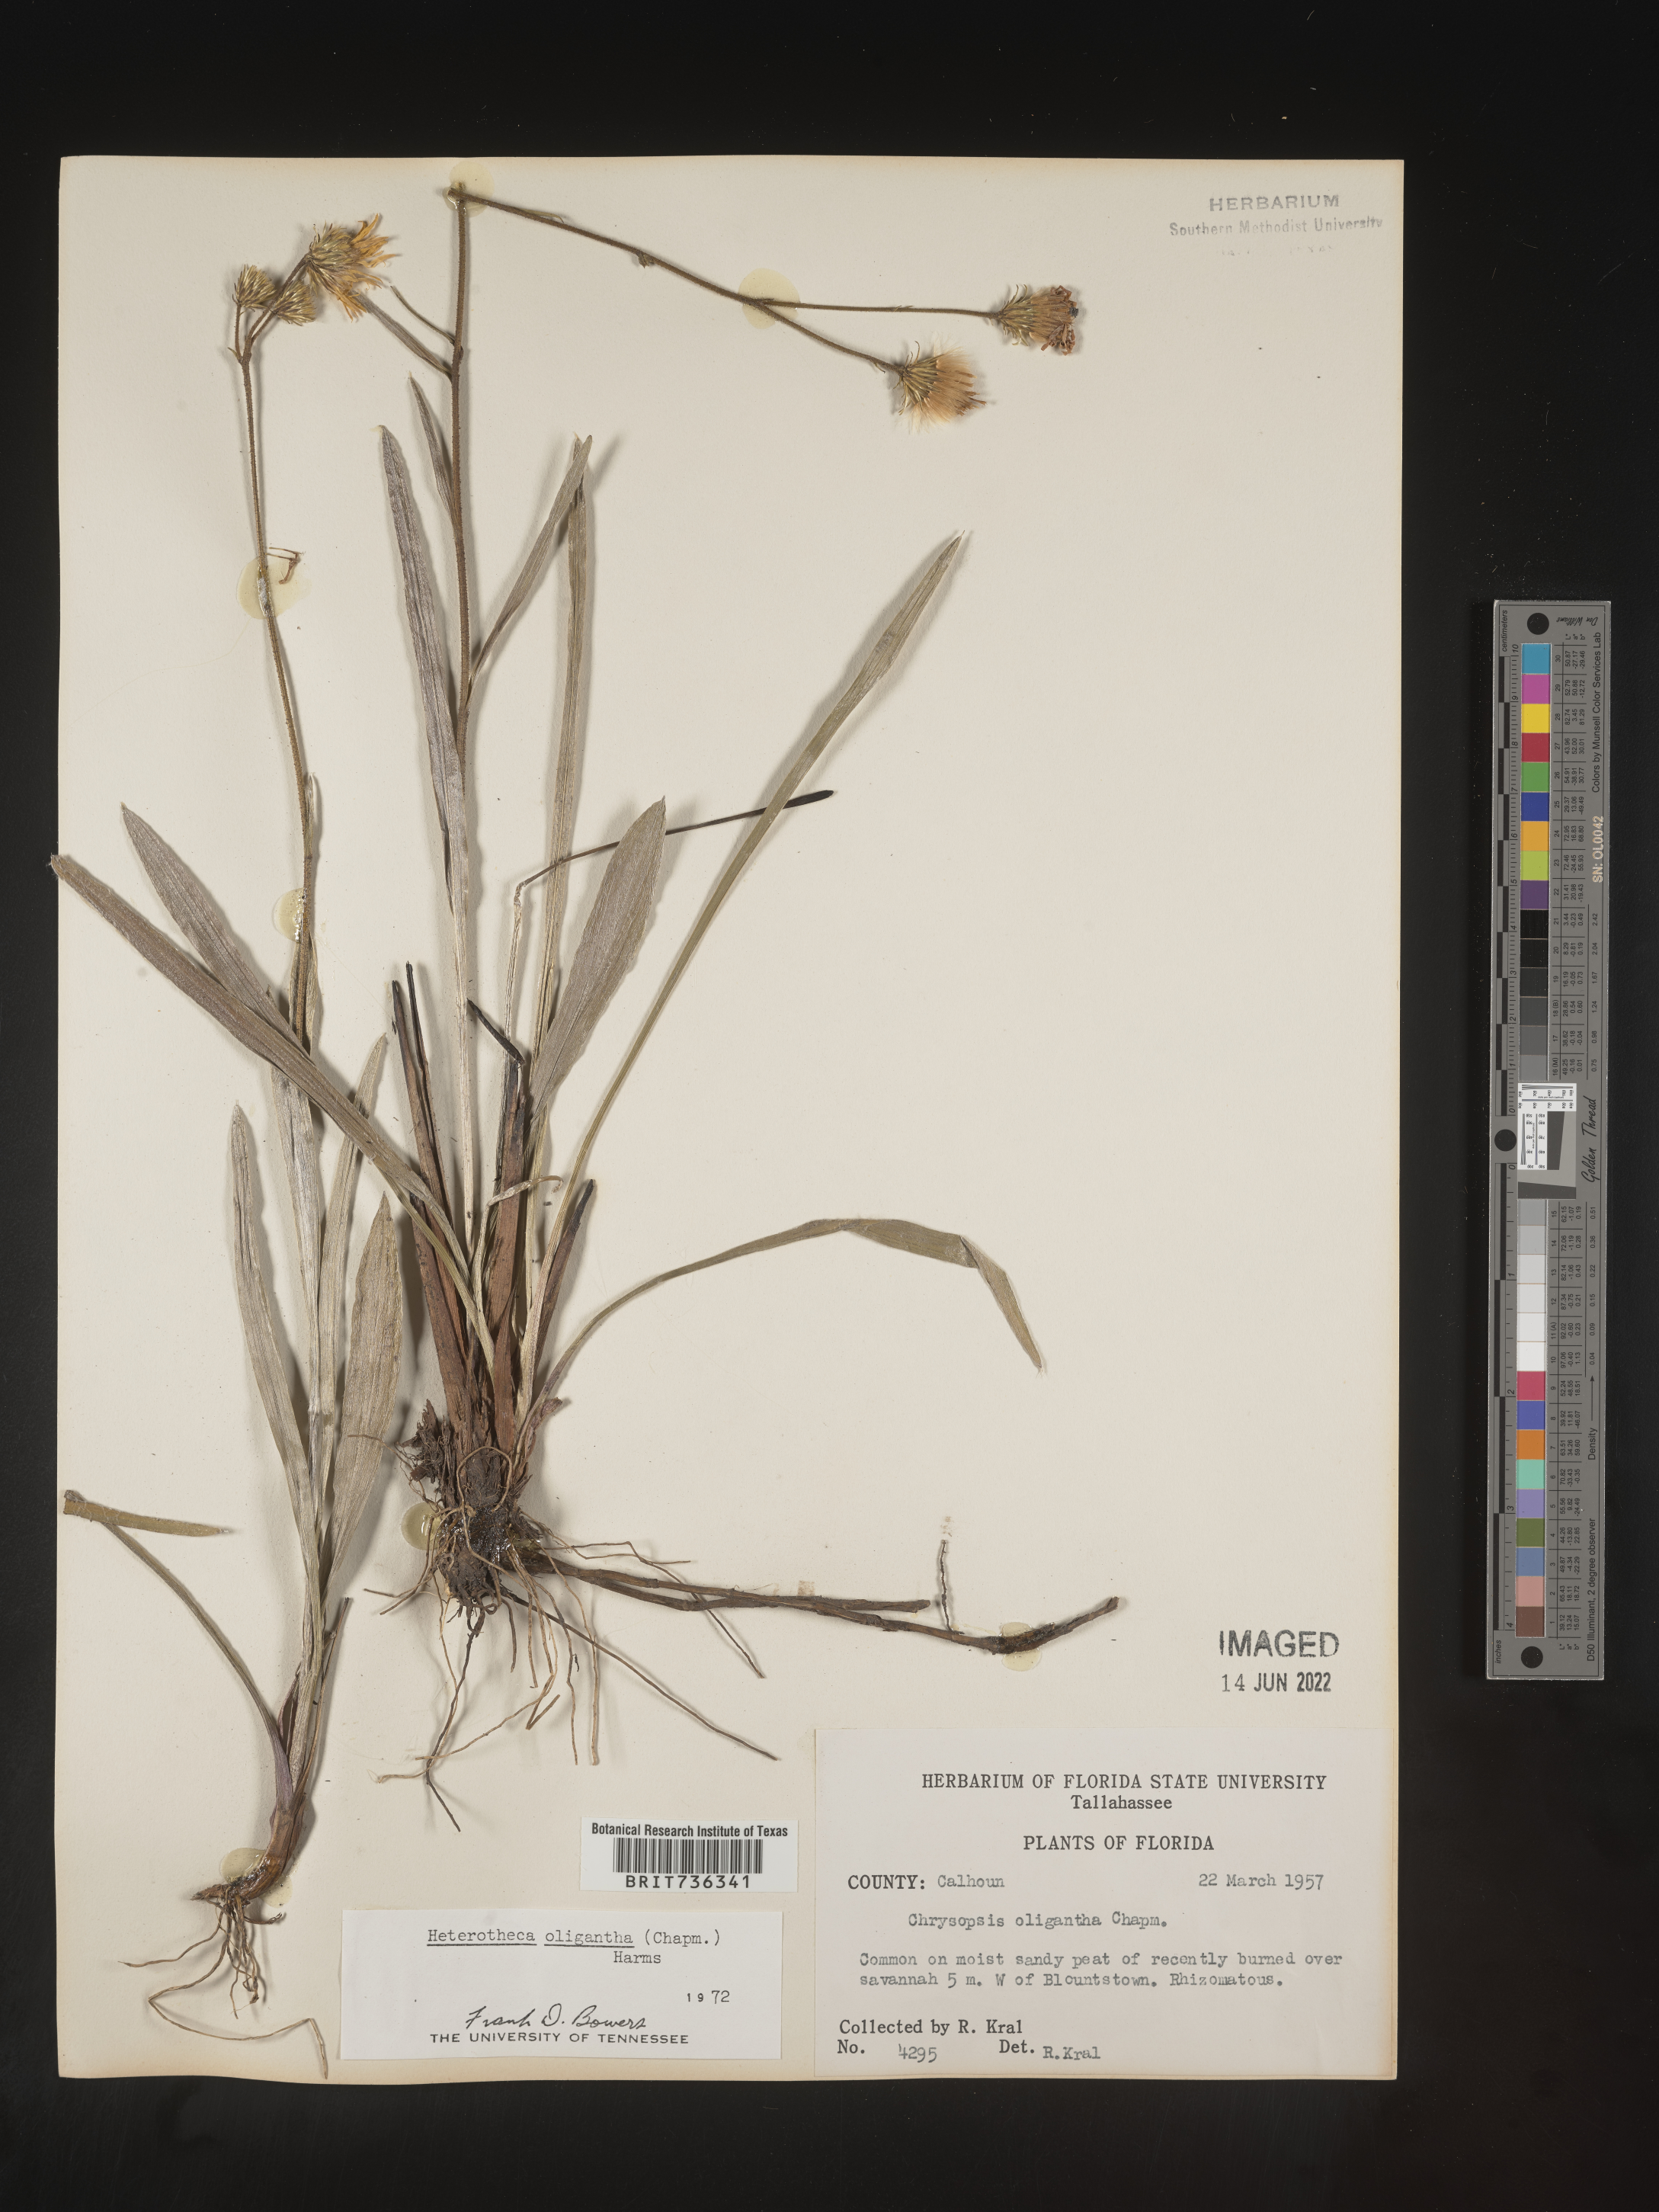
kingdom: Plantae
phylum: Tracheophyta
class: Magnoliopsida
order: Asterales
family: Asteraceae
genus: Pityopsis
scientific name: Pityopsis oligantha
